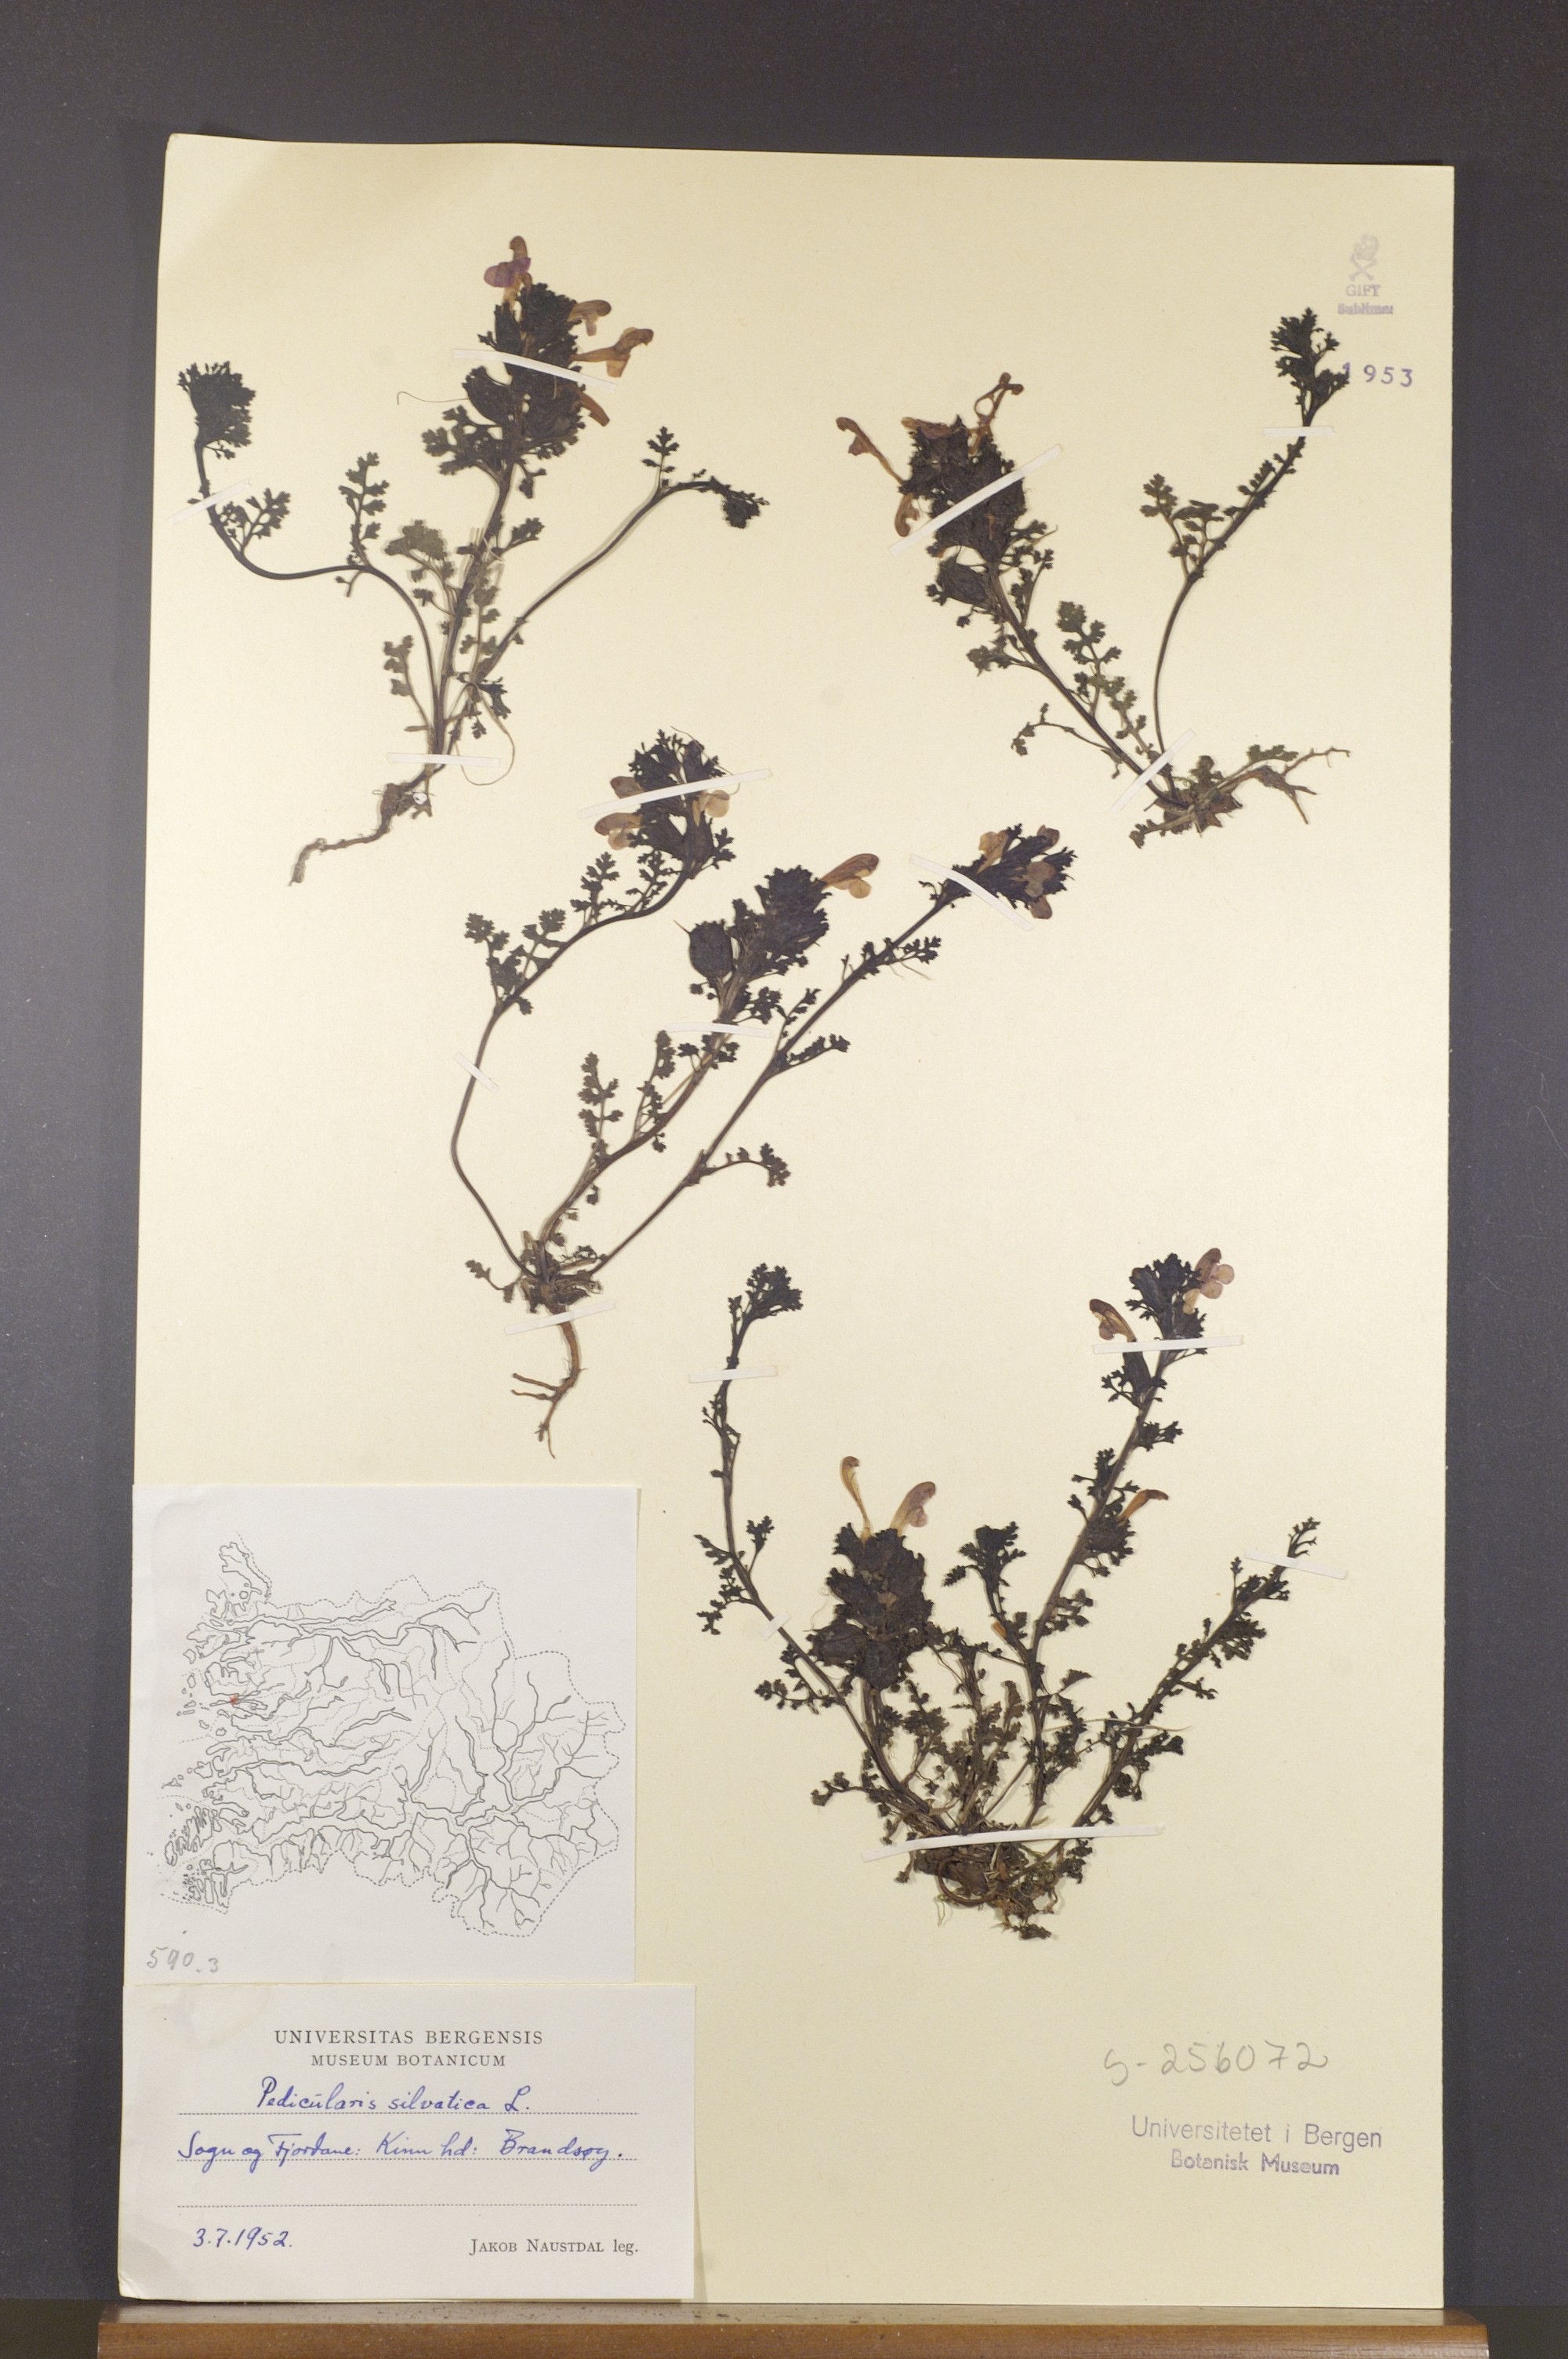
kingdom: Plantae
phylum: Tracheophyta
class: Magnoliopsida
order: Lamiales
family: Orobanchaceae
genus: Pedicularis
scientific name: Pedicularis sylvatica
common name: Lousewort
